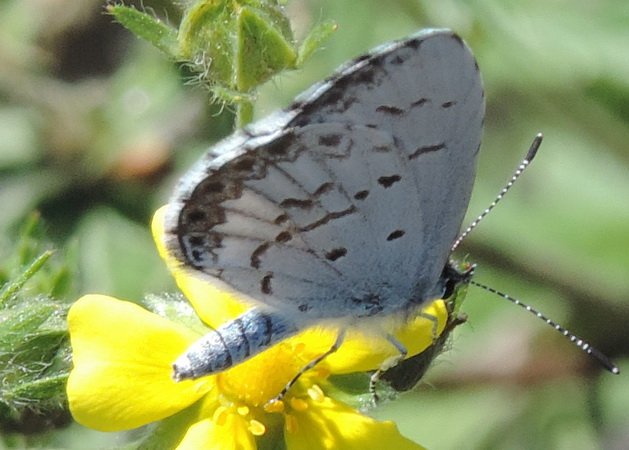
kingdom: Animalia
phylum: Arthropoda
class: Insecta
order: Lepidoptera
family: Lycaenidae
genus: Celastrina
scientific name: Celastrina lucia
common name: Northern Spring Azure
